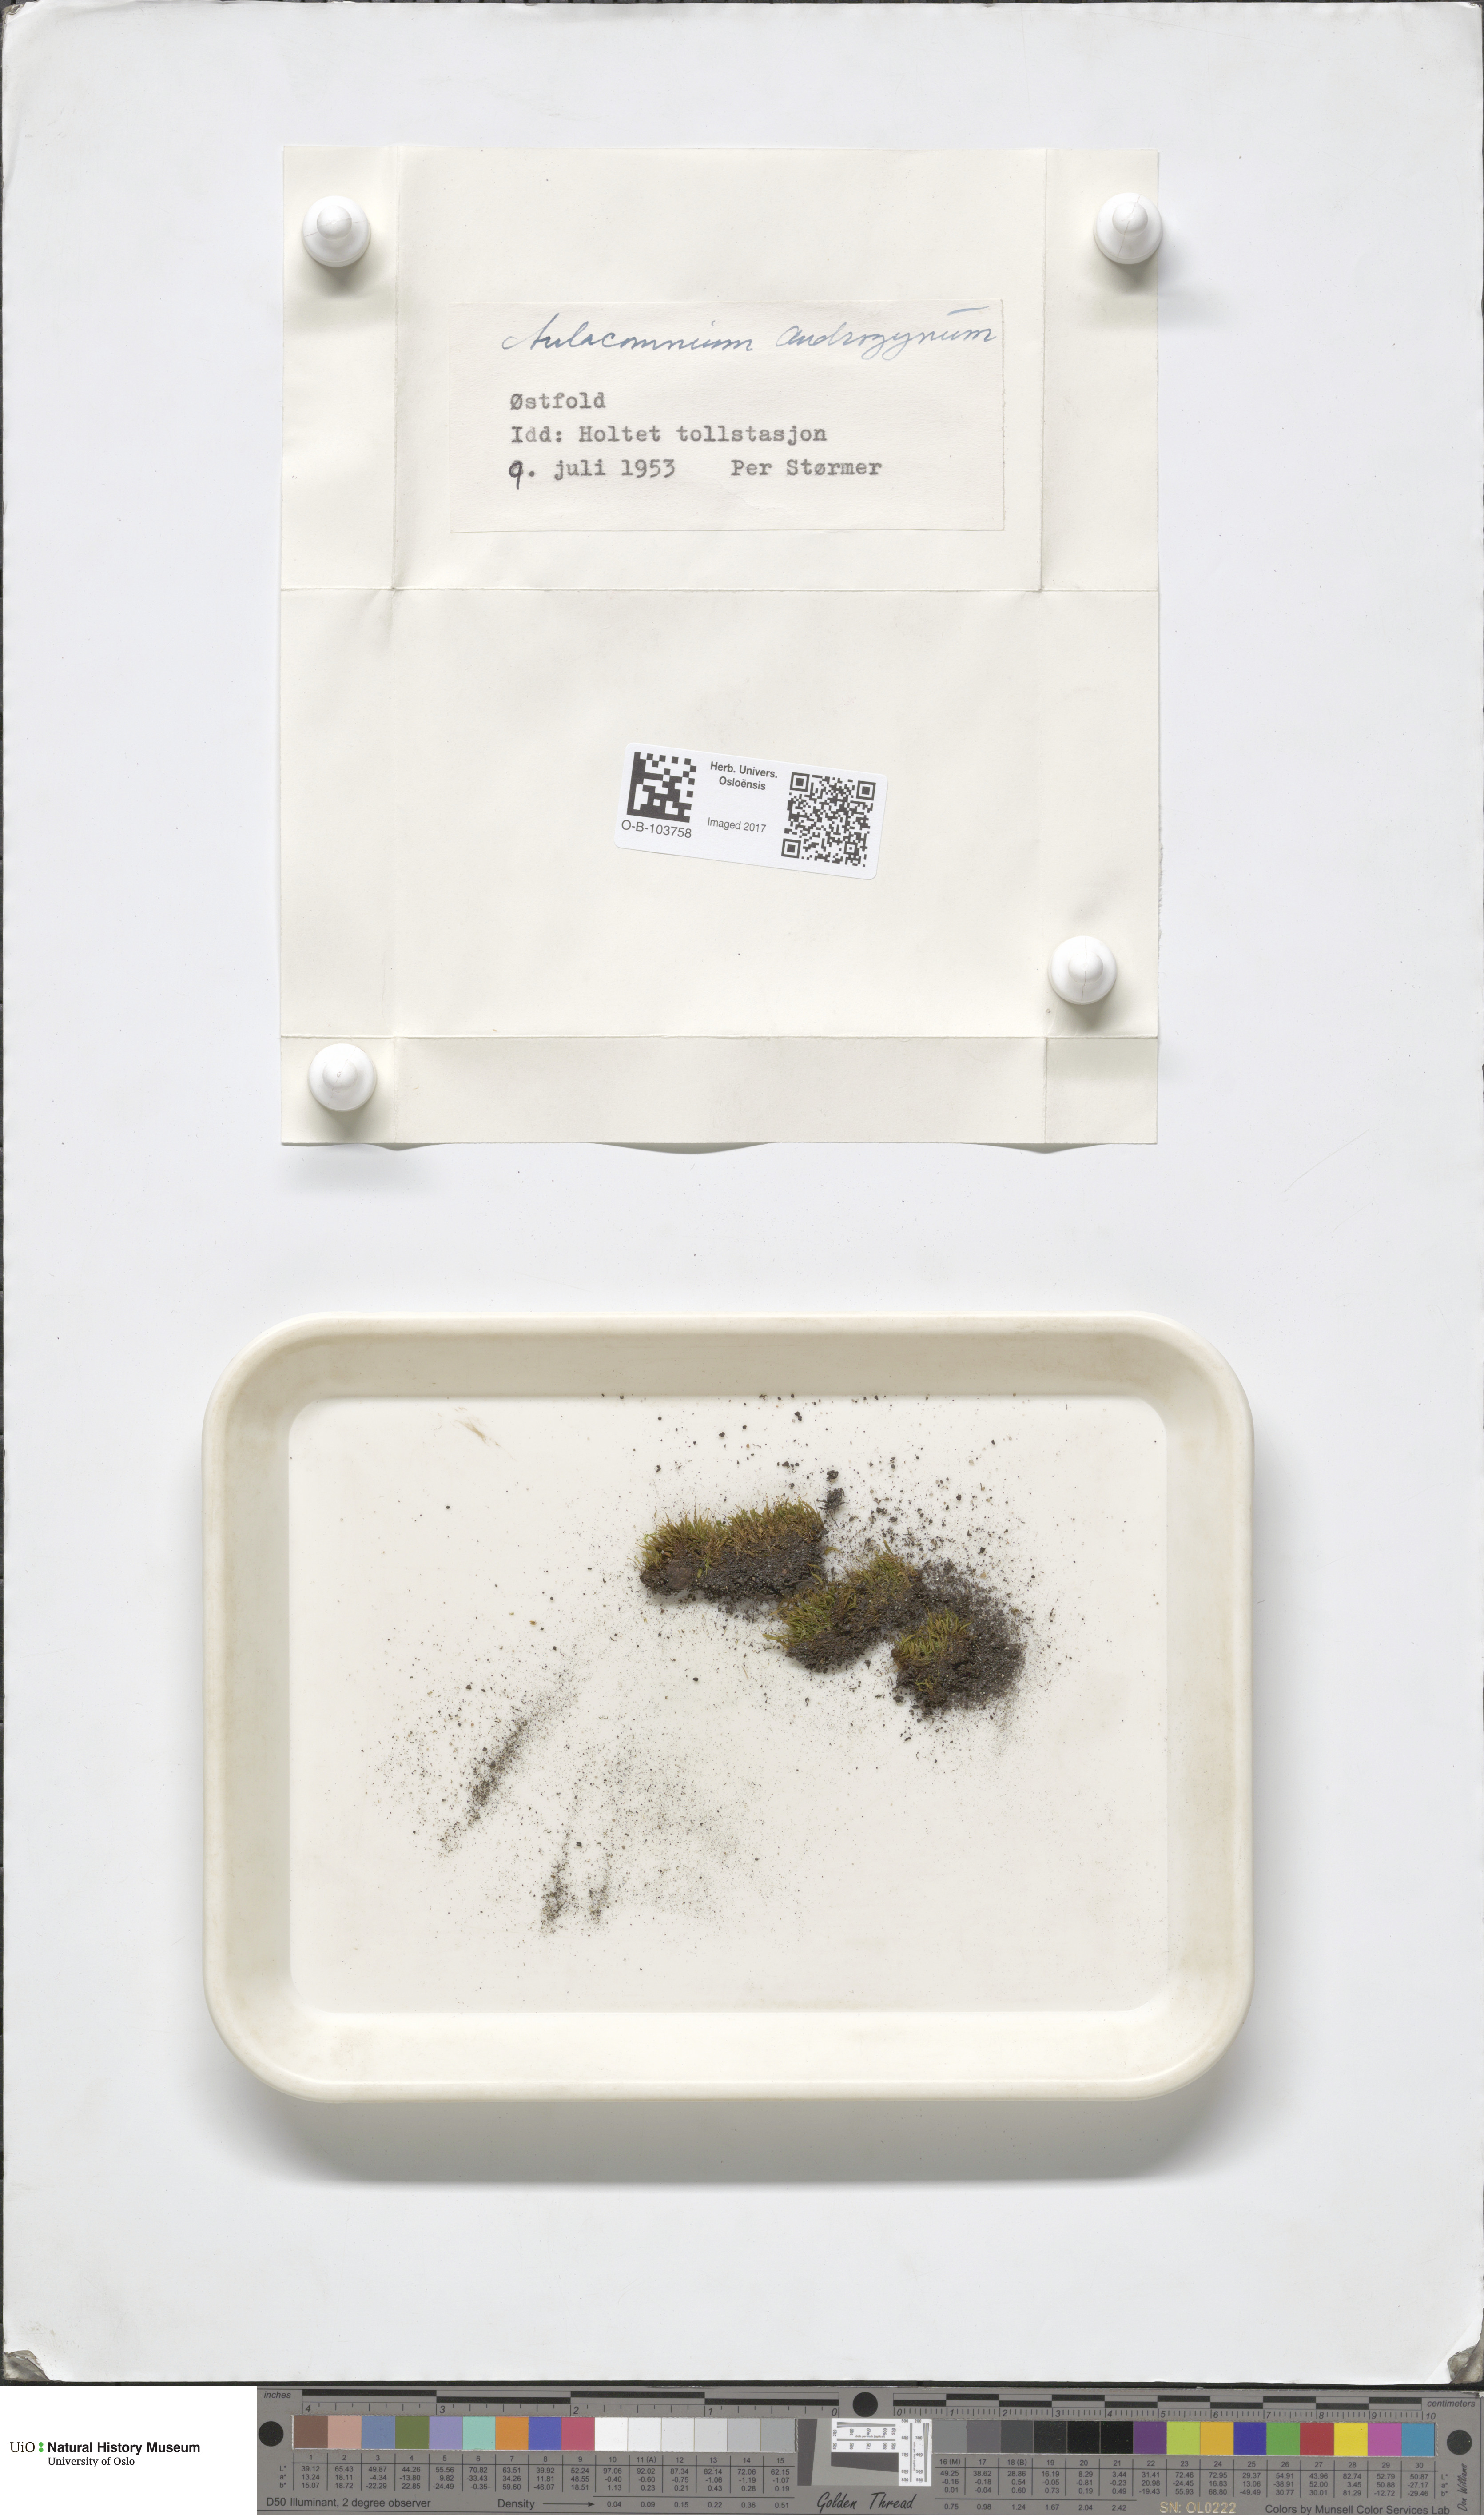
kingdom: Plantae
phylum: Bryophyta
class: Bryopsida
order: Aulacomniales
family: Aulacomniaceae
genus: Aulacomnium
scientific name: Aulacomnium androgynum
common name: Little groove moss
